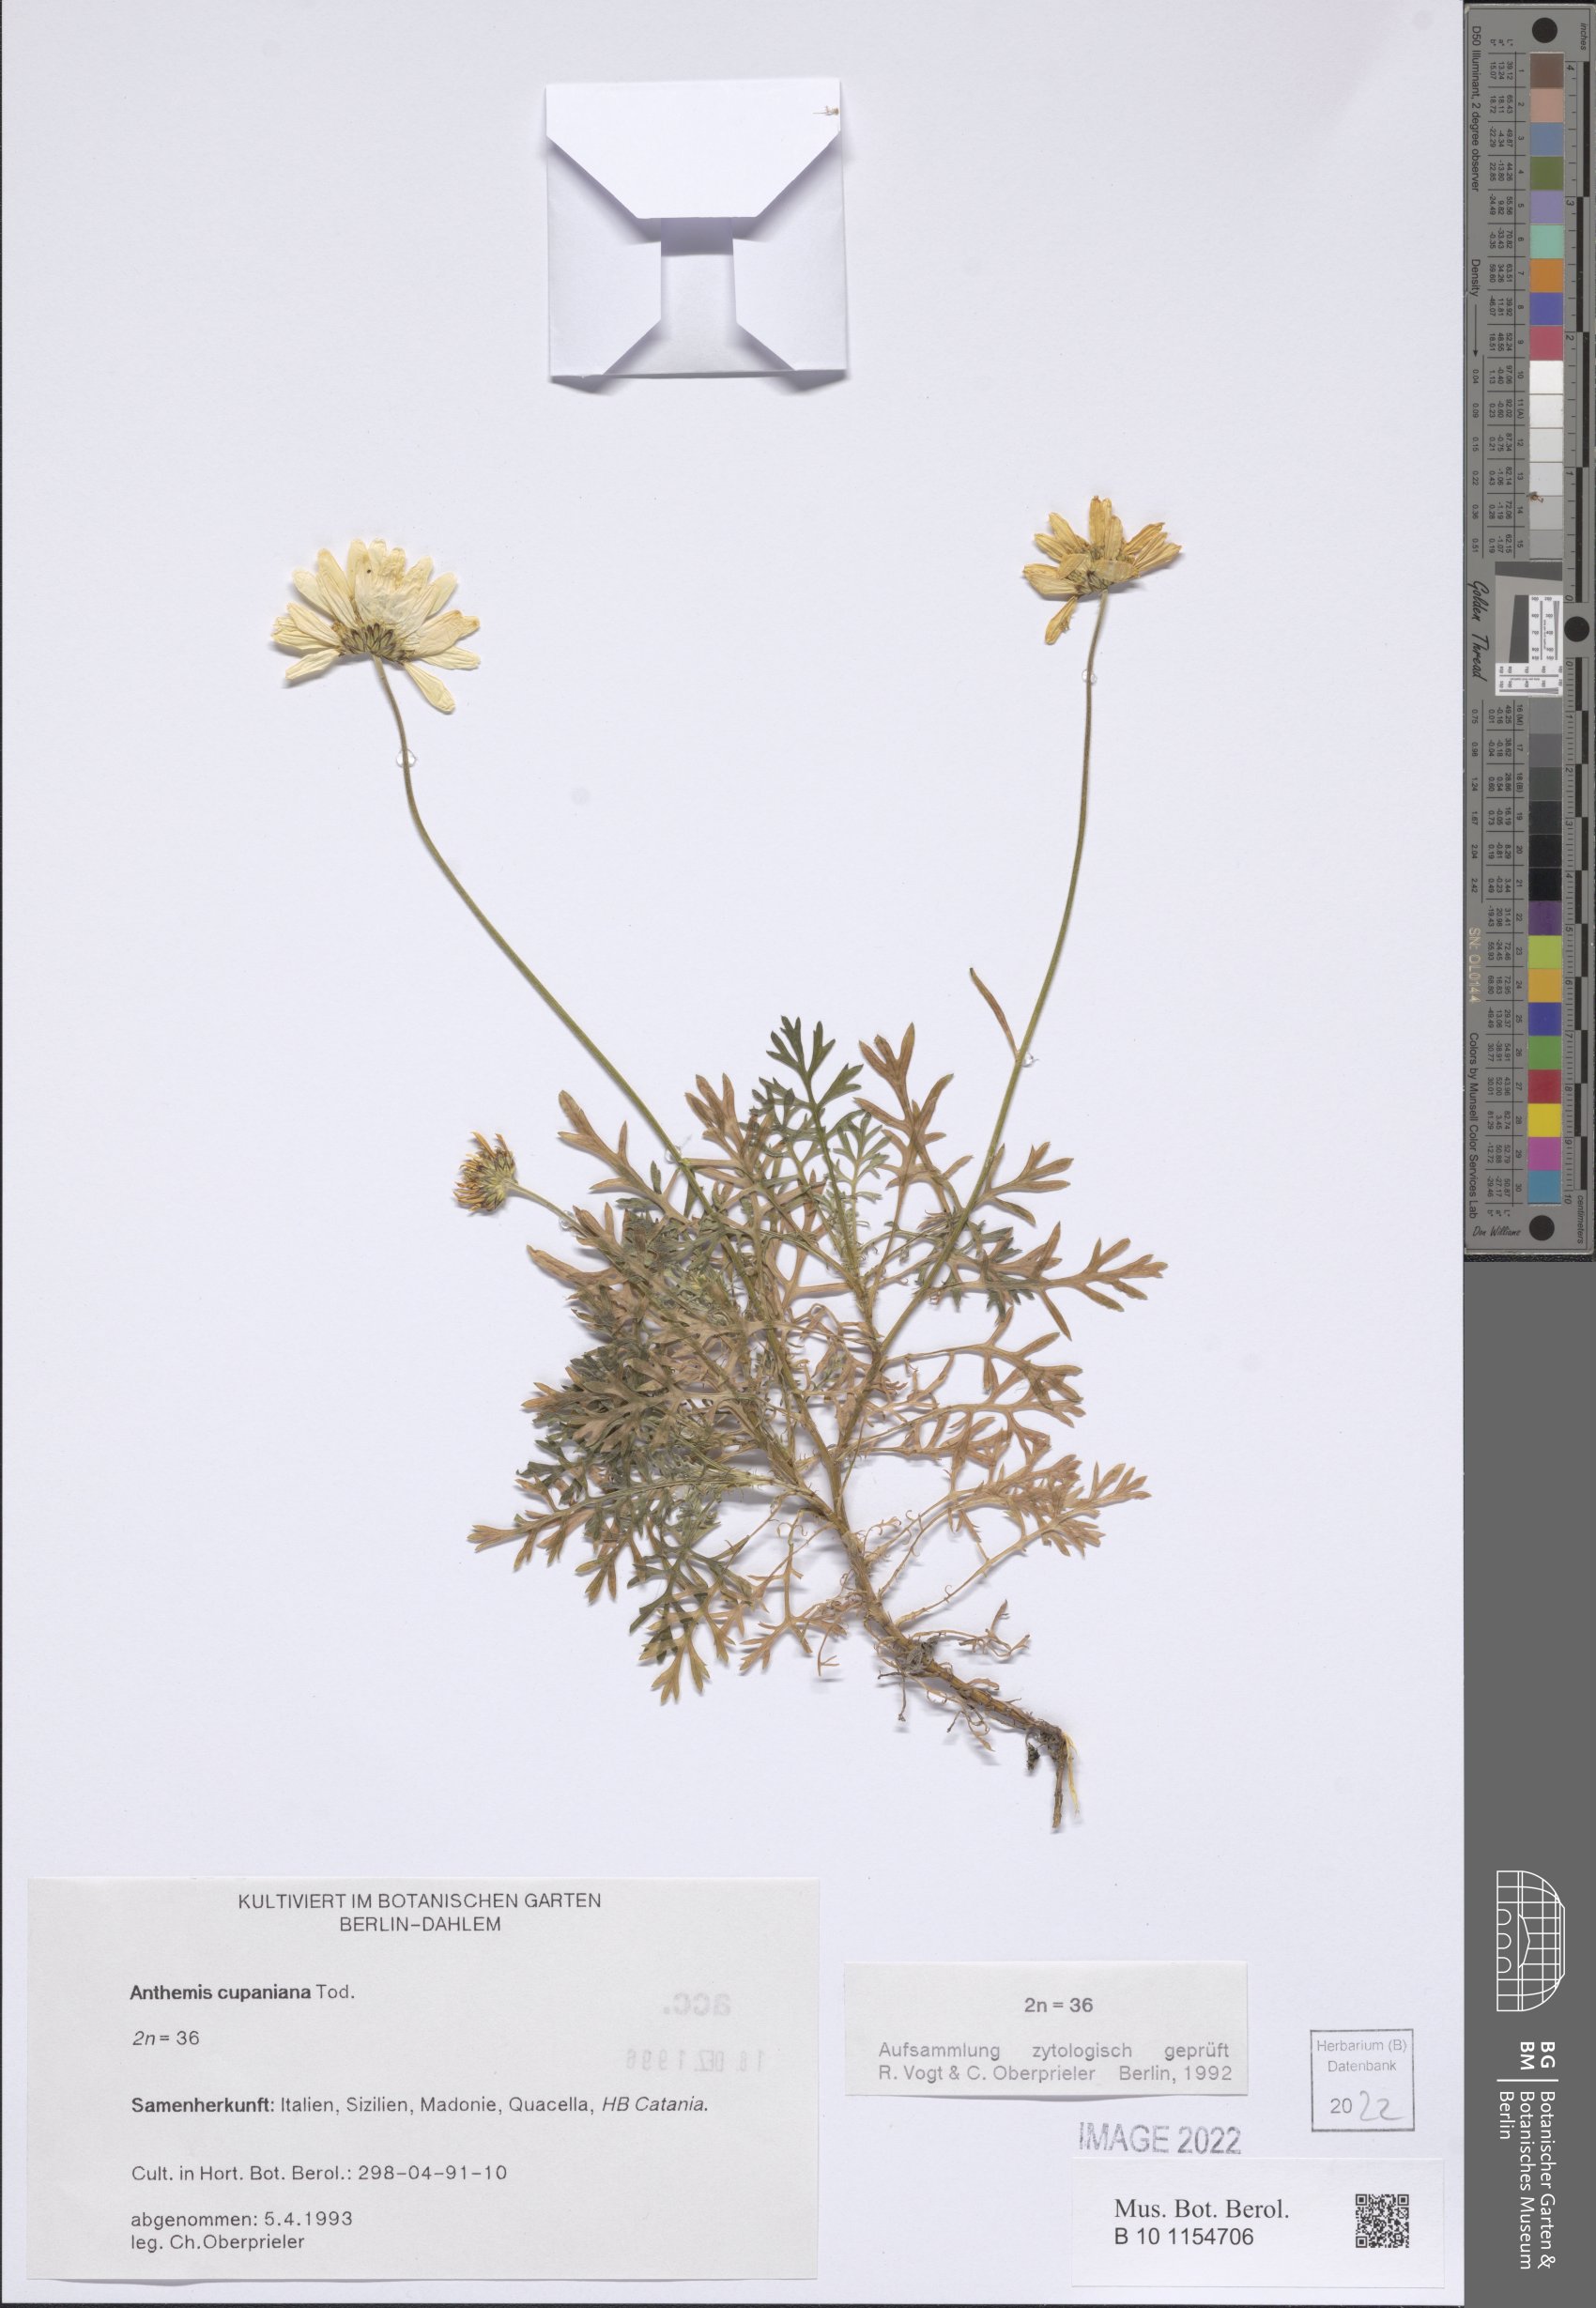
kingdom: Plantae
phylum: Tracheophyta
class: Magnoliopsida
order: Asterales
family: Asteraceae
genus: Anthemis
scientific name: Anthemis cupaniana
